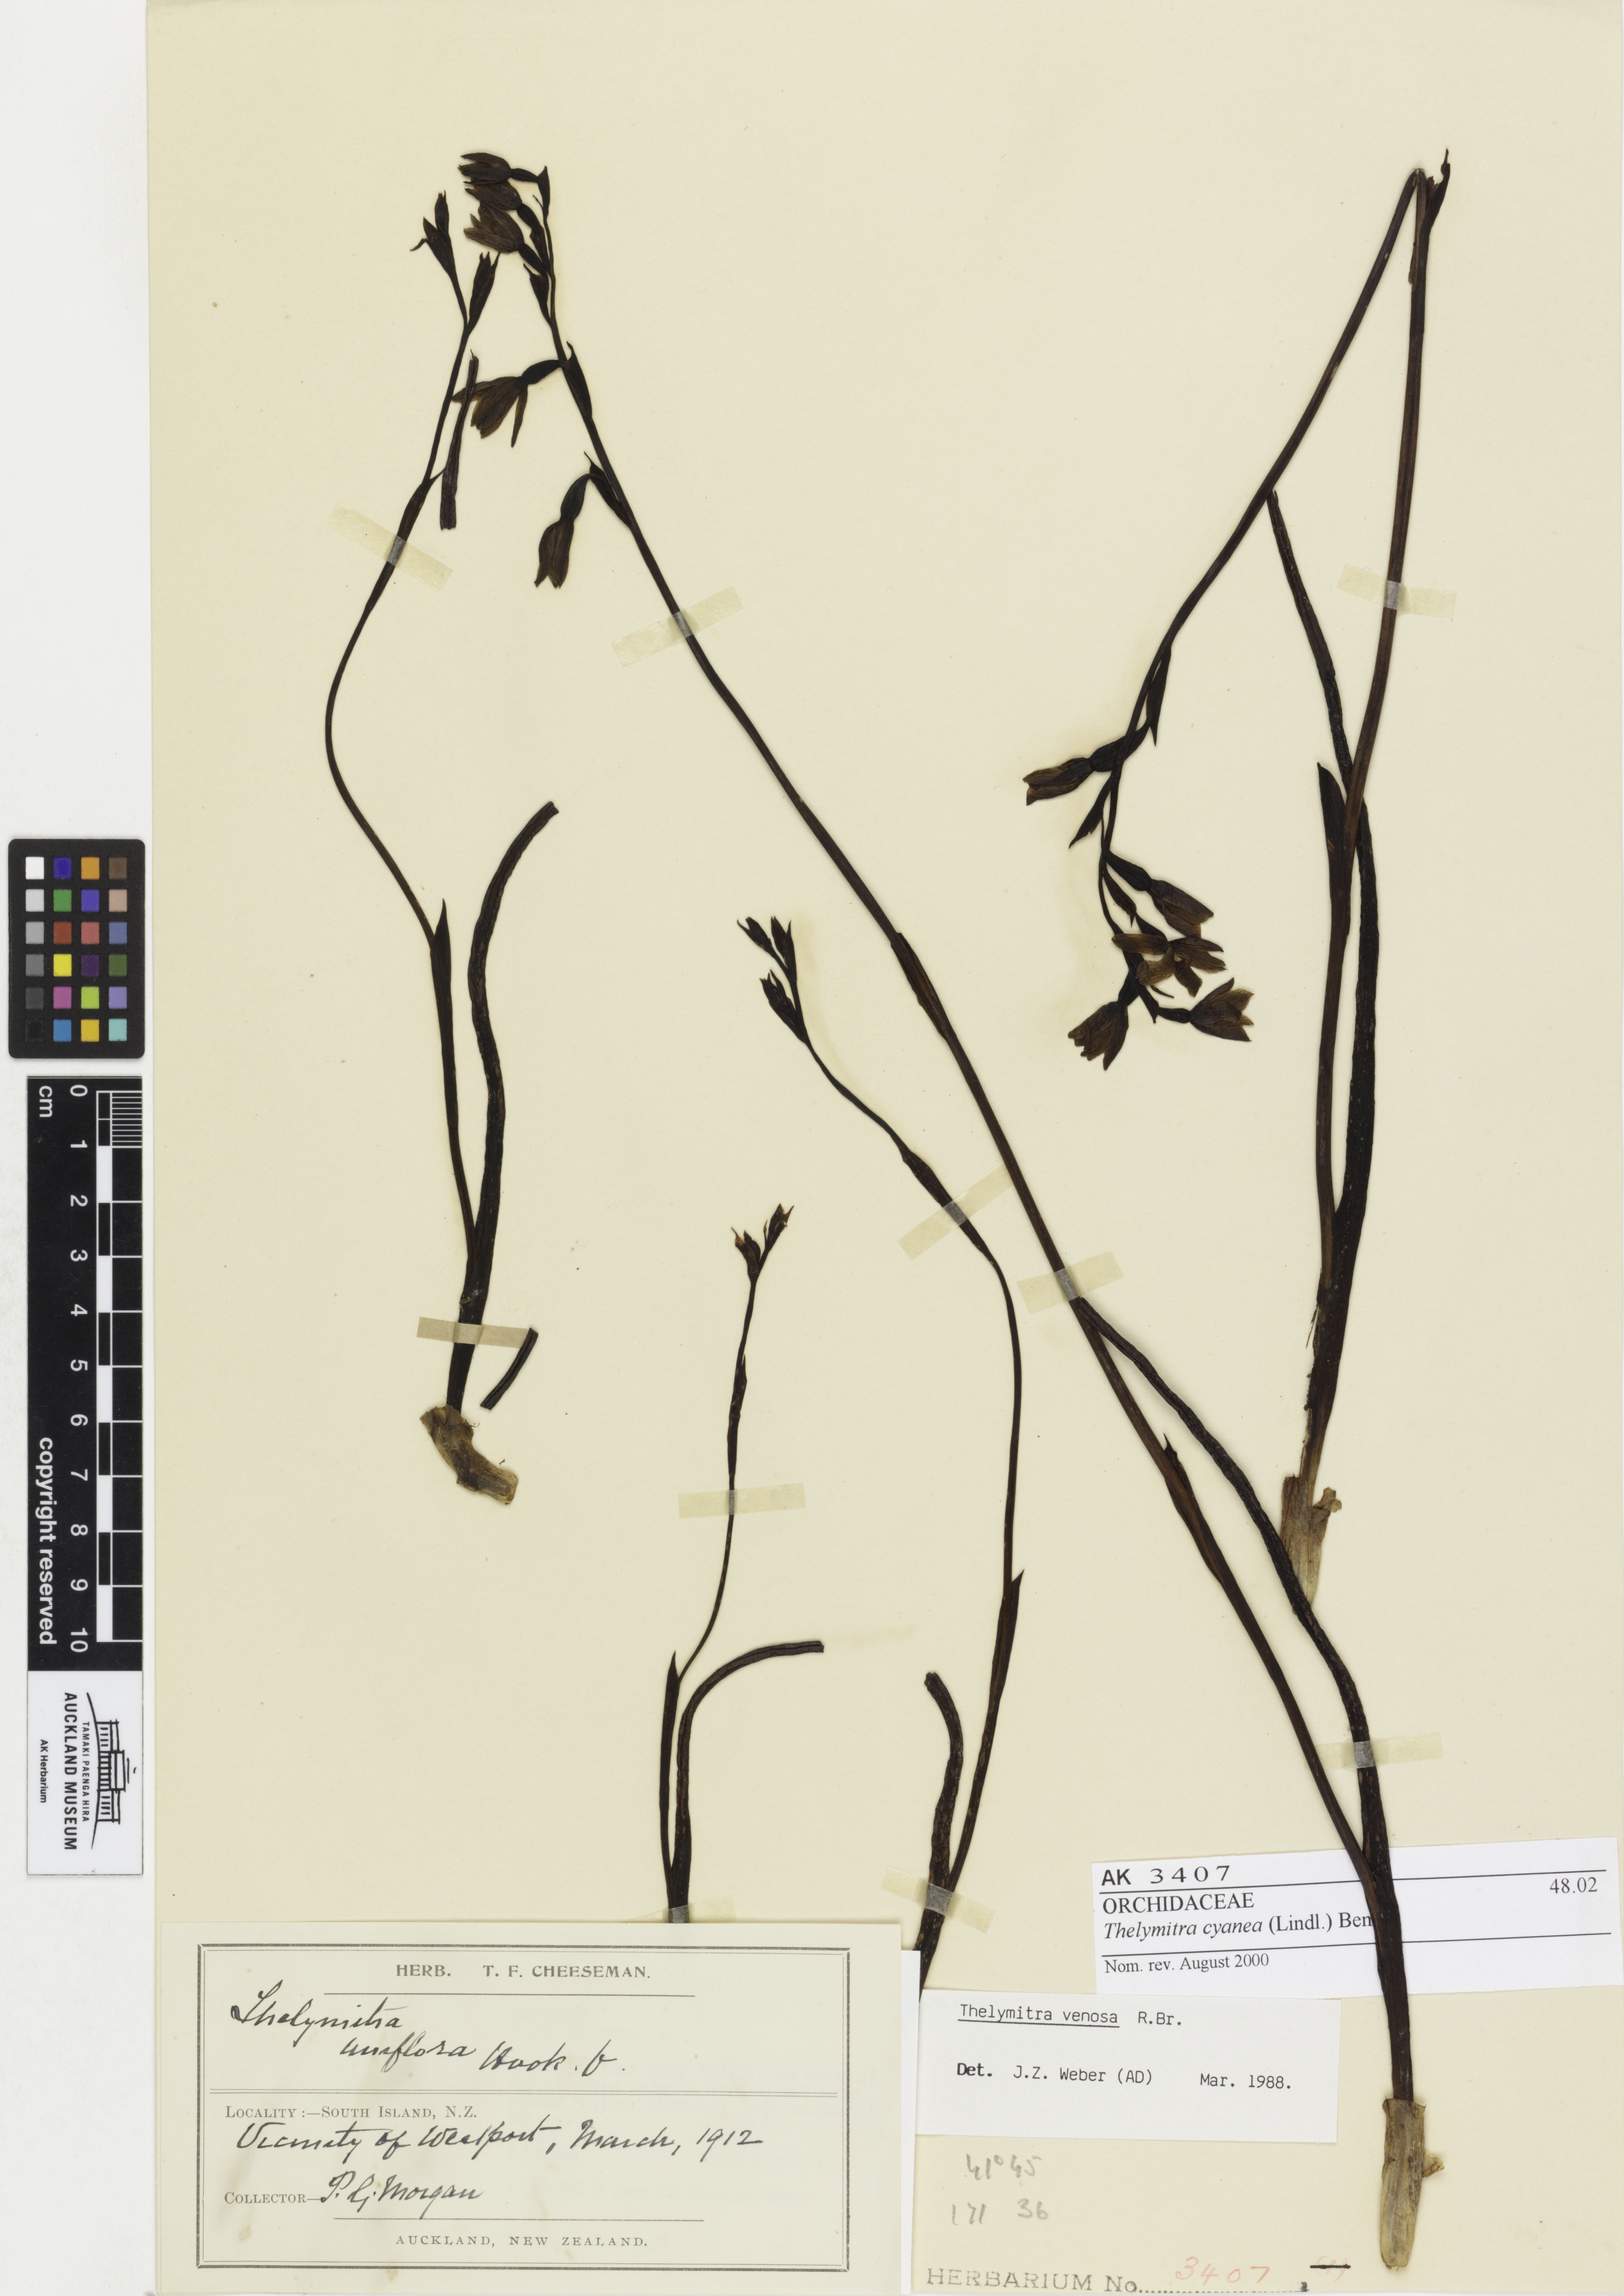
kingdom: Plantae
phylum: Tracheophyta
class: Liliopsida
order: Asparagales
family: Orchidaceae
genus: Thelymitra
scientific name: Thelymitra cyanea
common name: Blue sun-orchid
